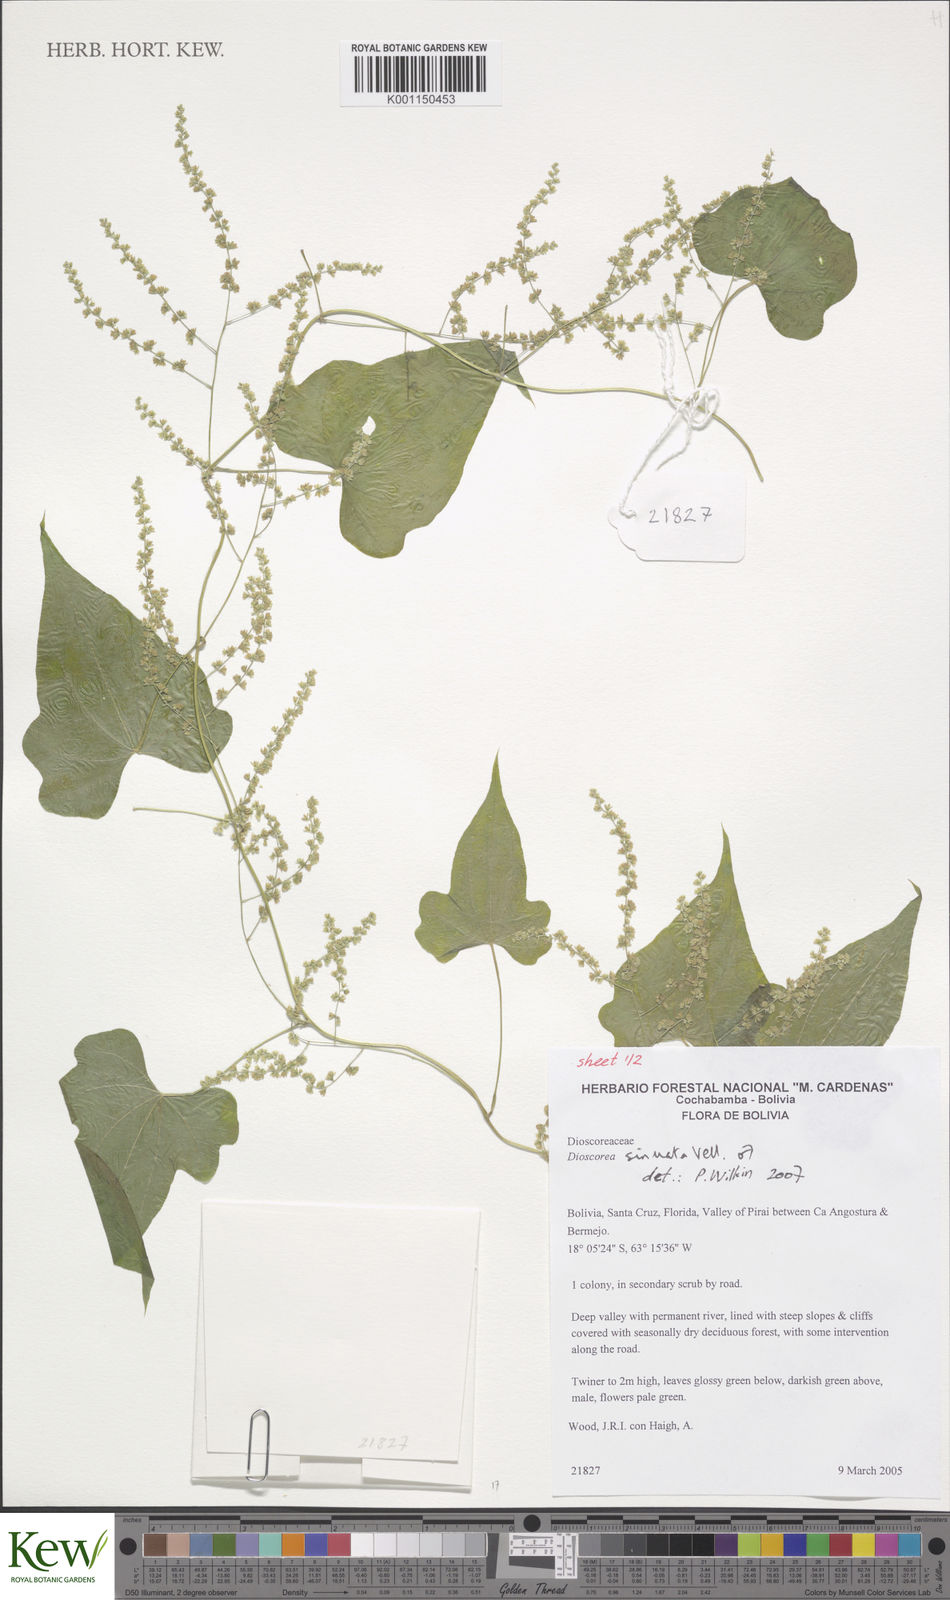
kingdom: Plantae
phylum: Tracheophyta
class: Liliopsida
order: Dioscoreales
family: Dioscoreaceae
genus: Dioscorea
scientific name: Dioscorea sinuata
